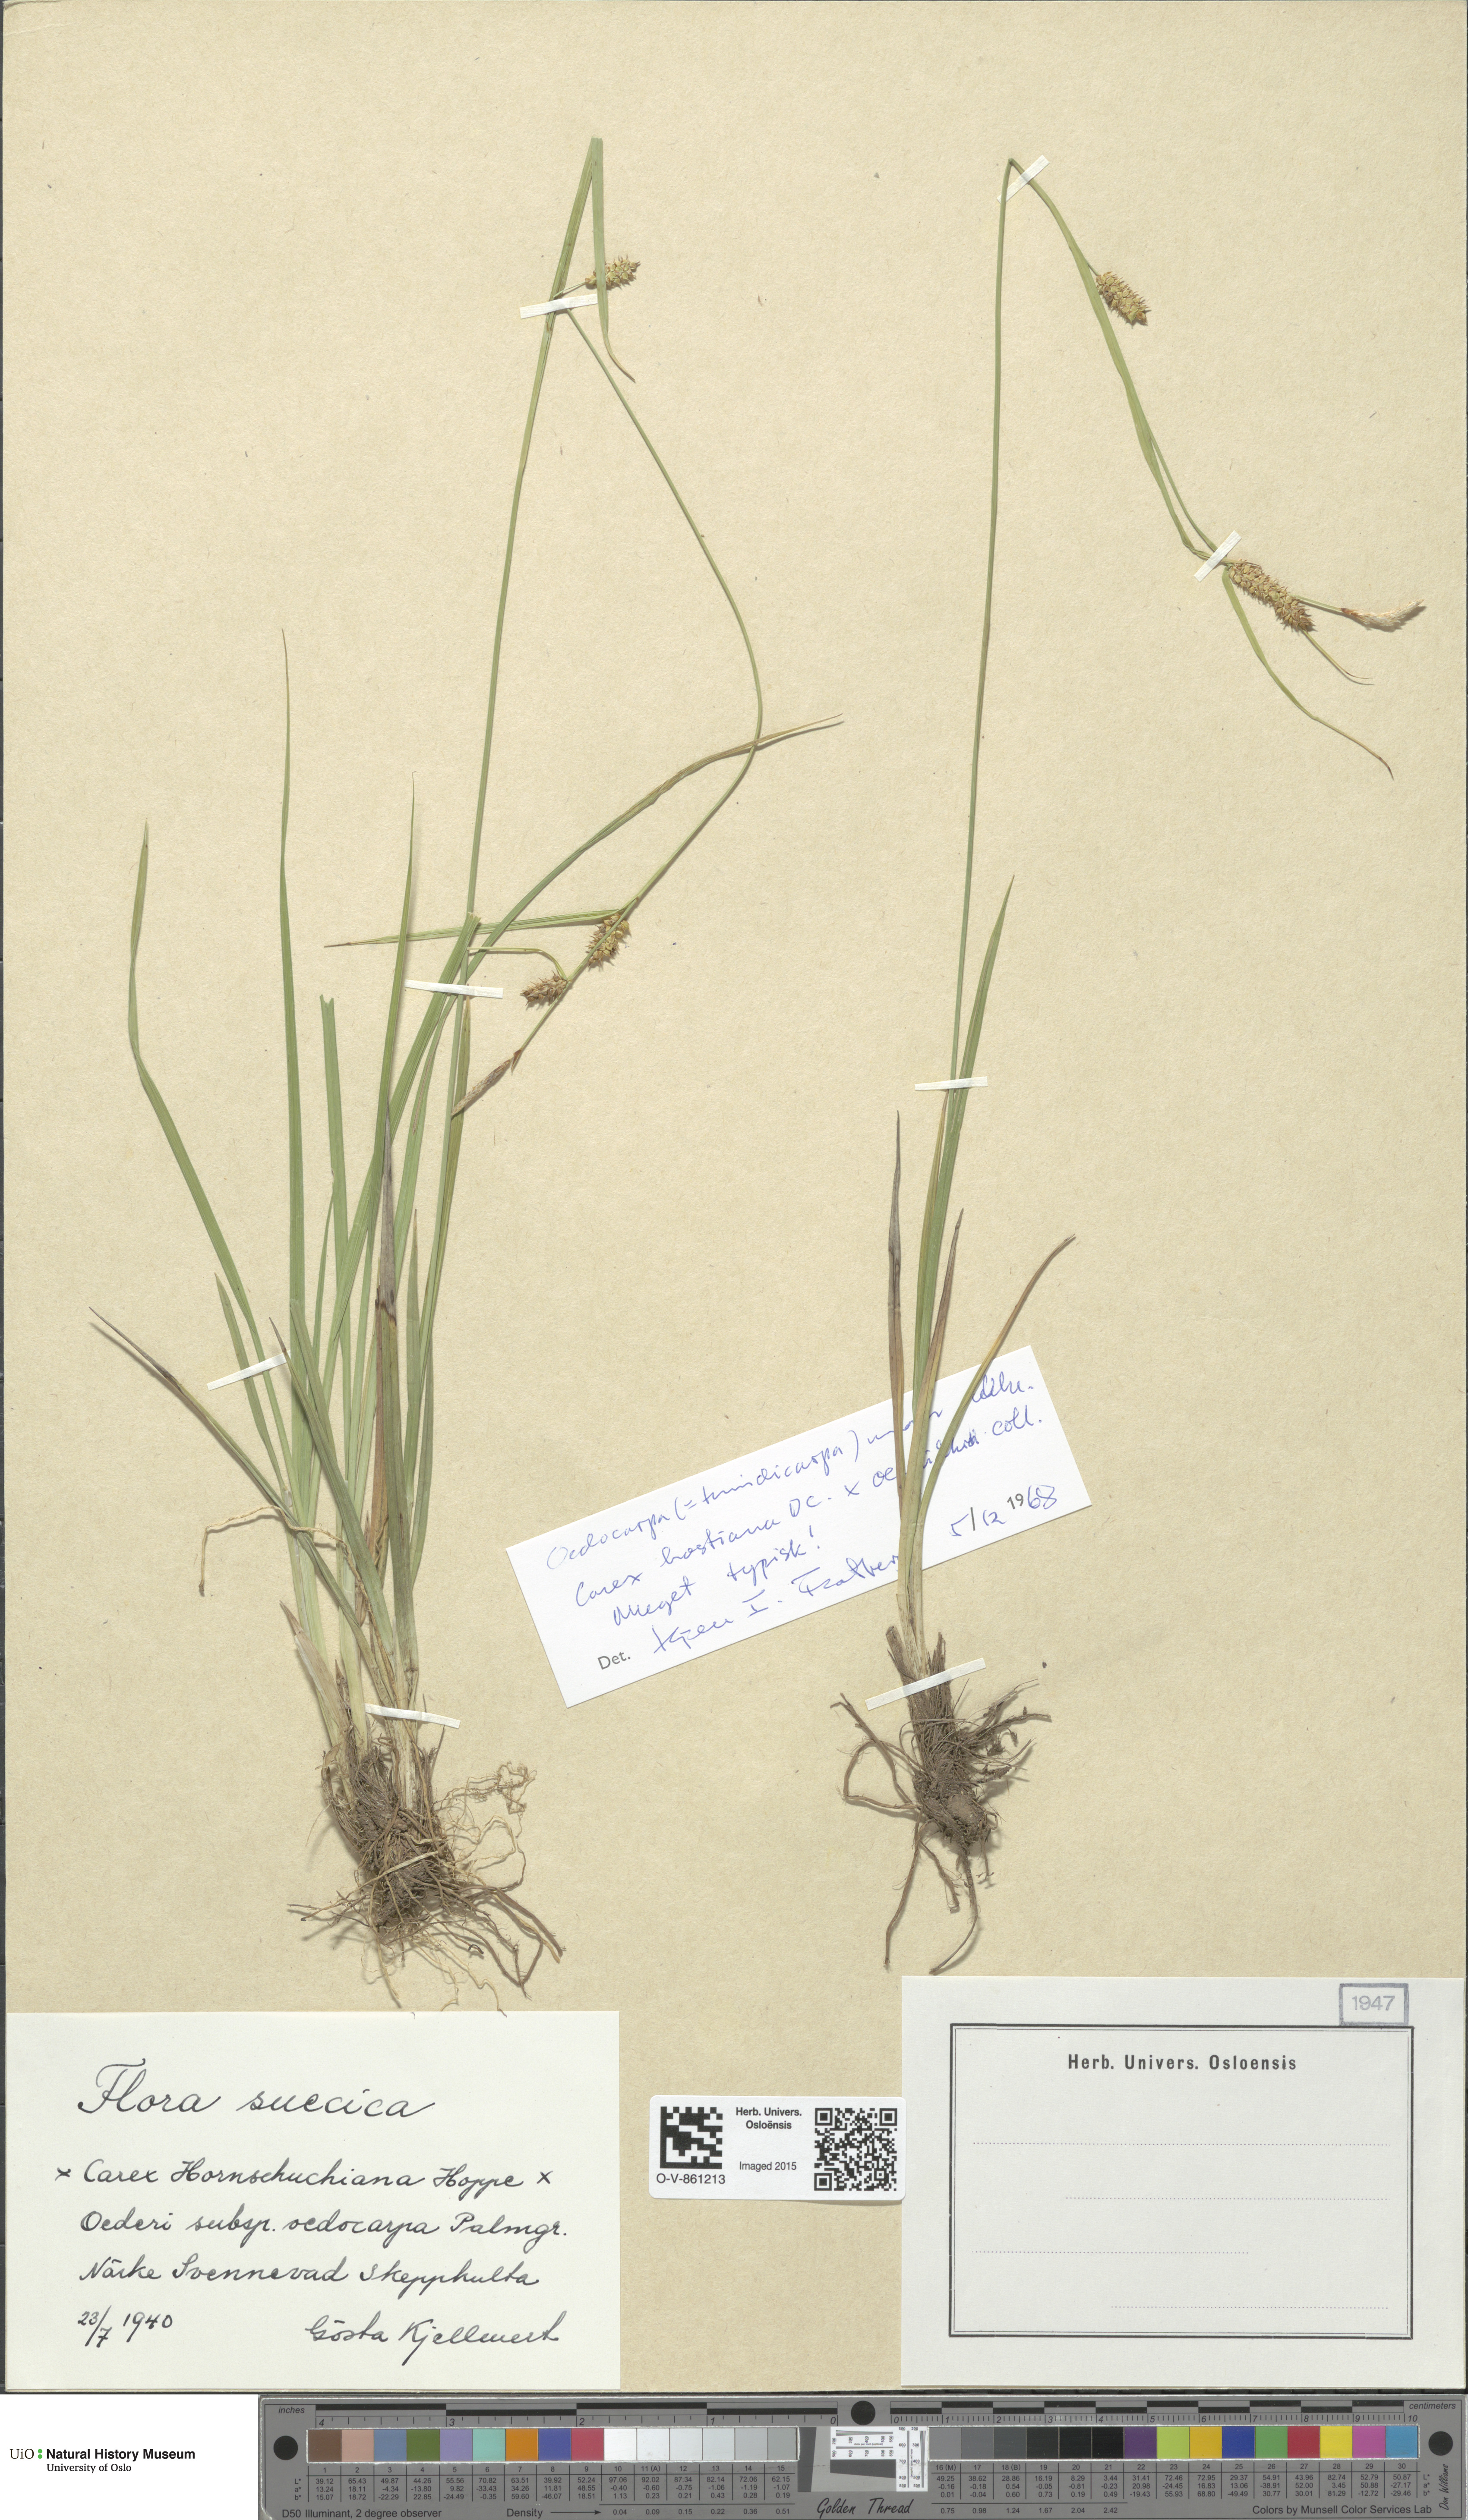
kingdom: Plantae
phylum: Tracheophyta
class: Liliopsida
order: Poales
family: Cyperaceae
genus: Carex
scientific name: Carex
